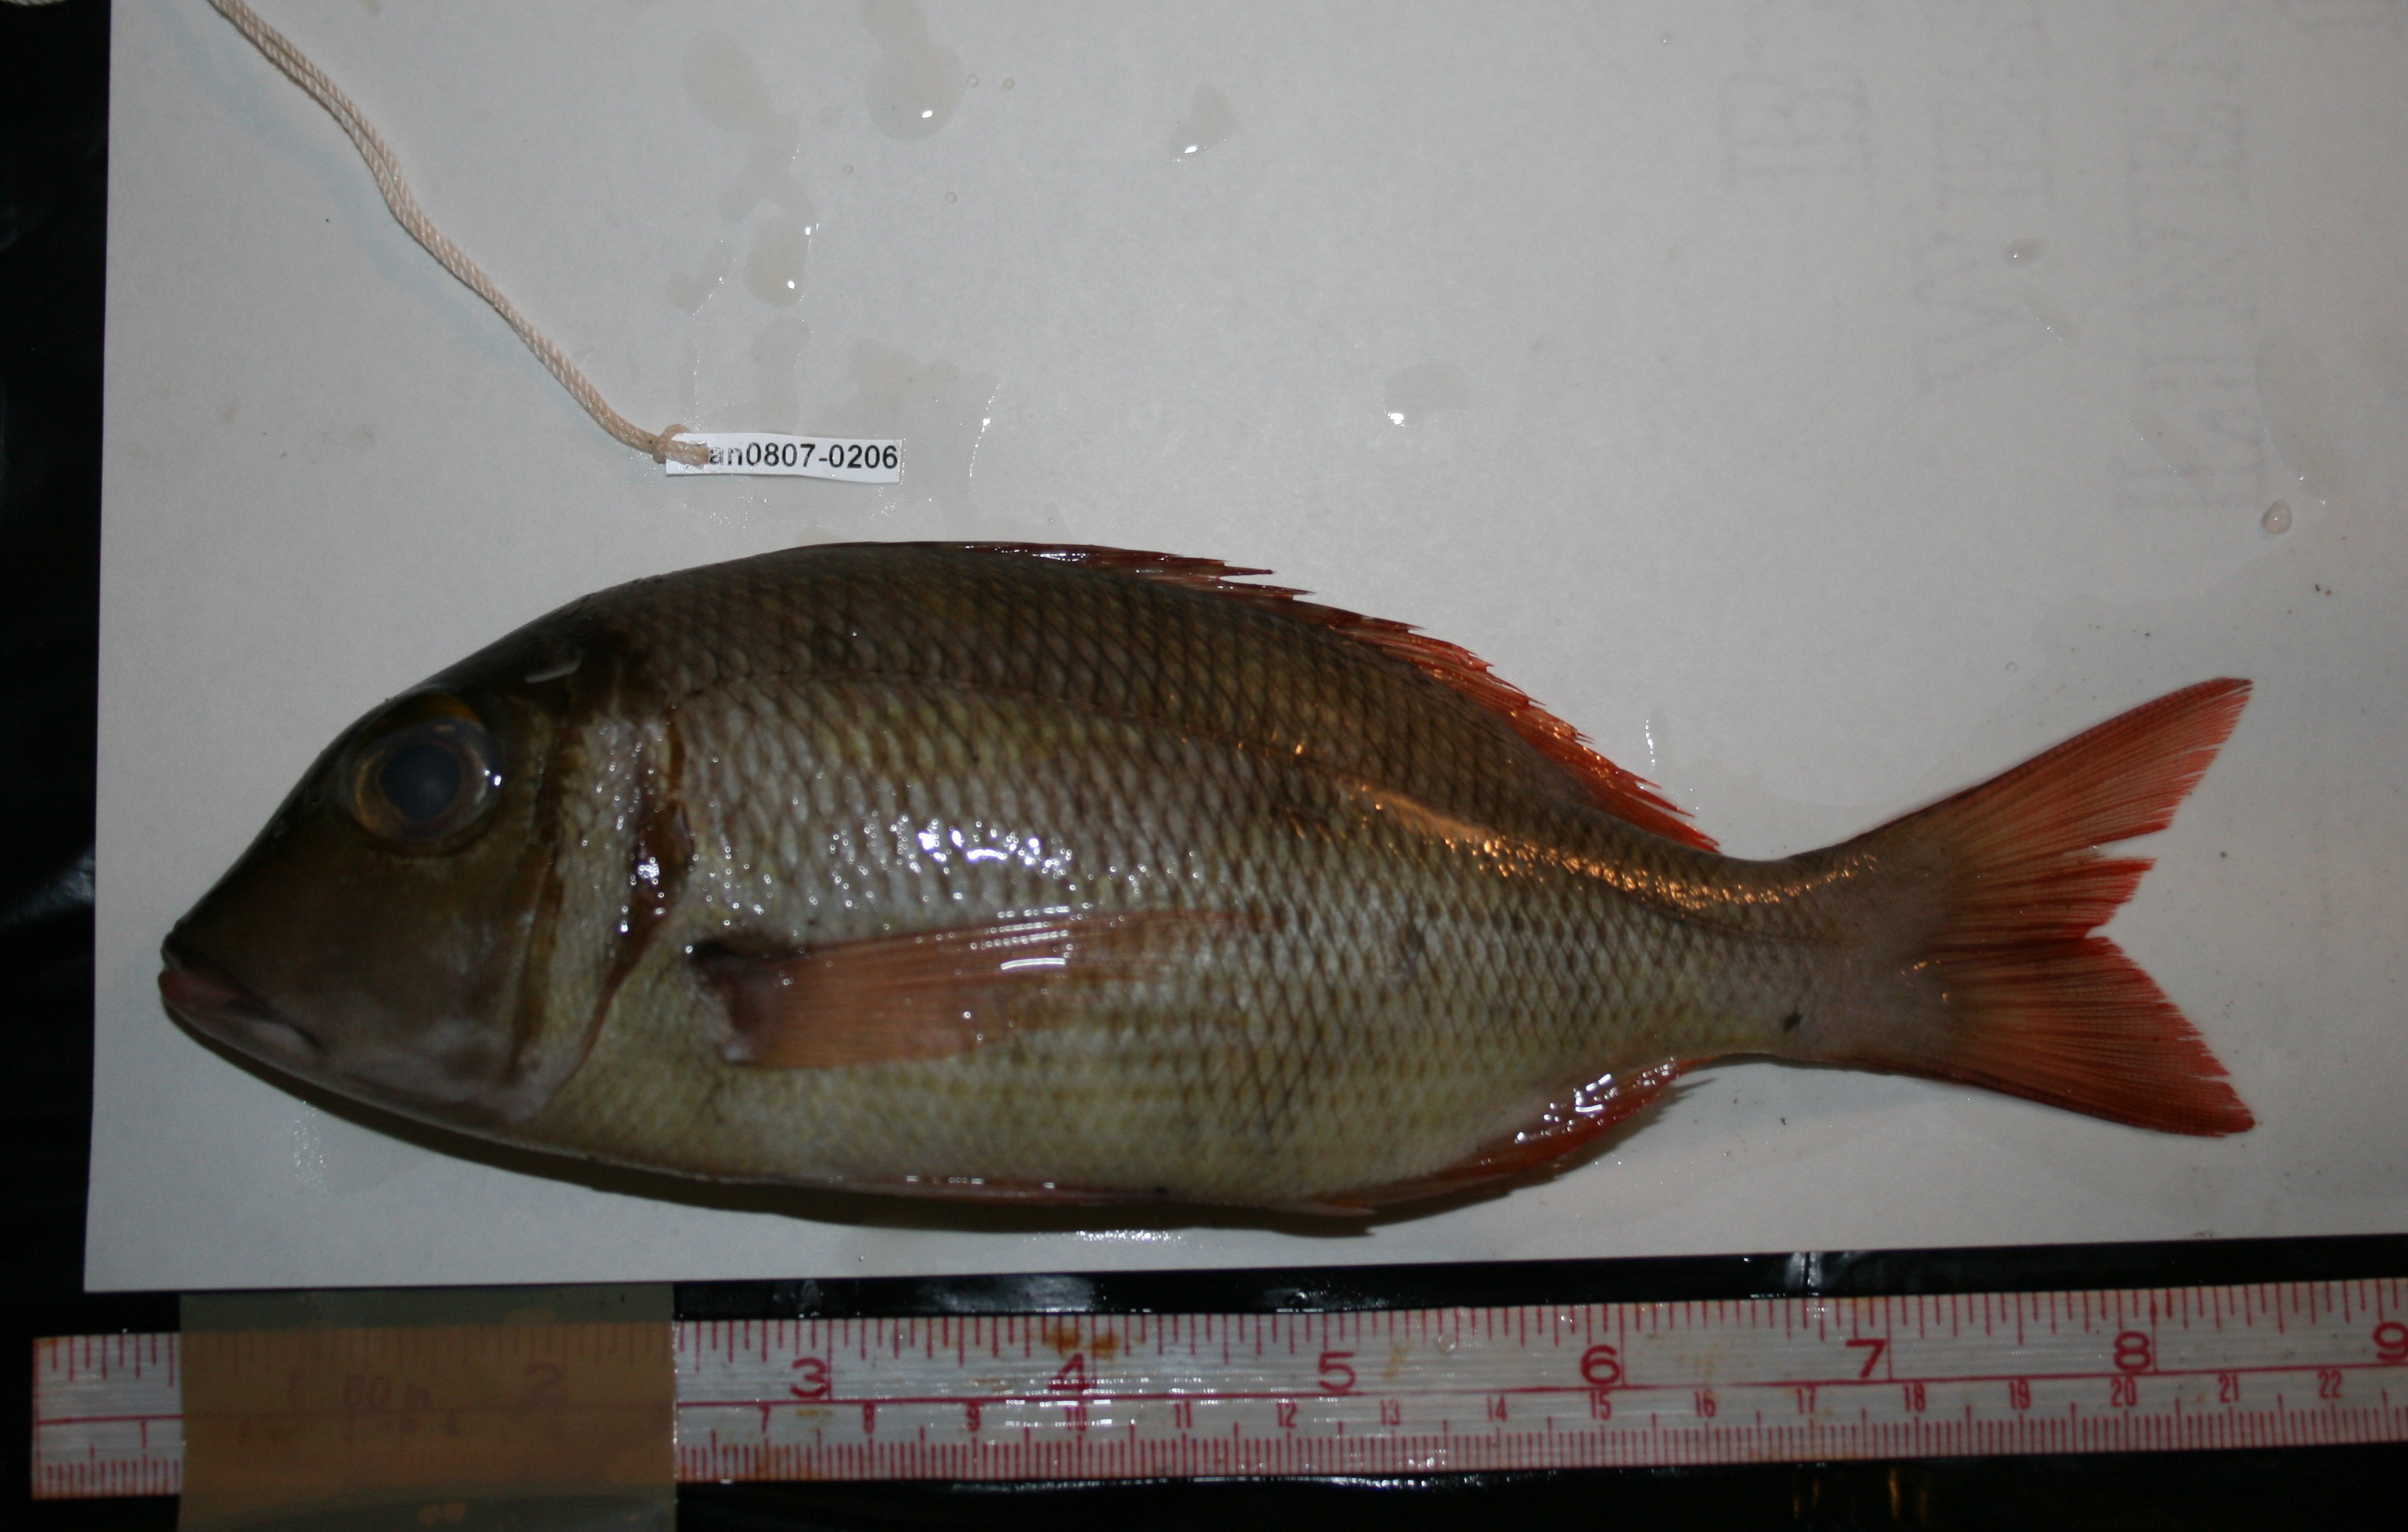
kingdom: Animalia
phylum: Chordata
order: Perciformes
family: Lethrinidae
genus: Lethrinus
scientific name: Lethrinus
